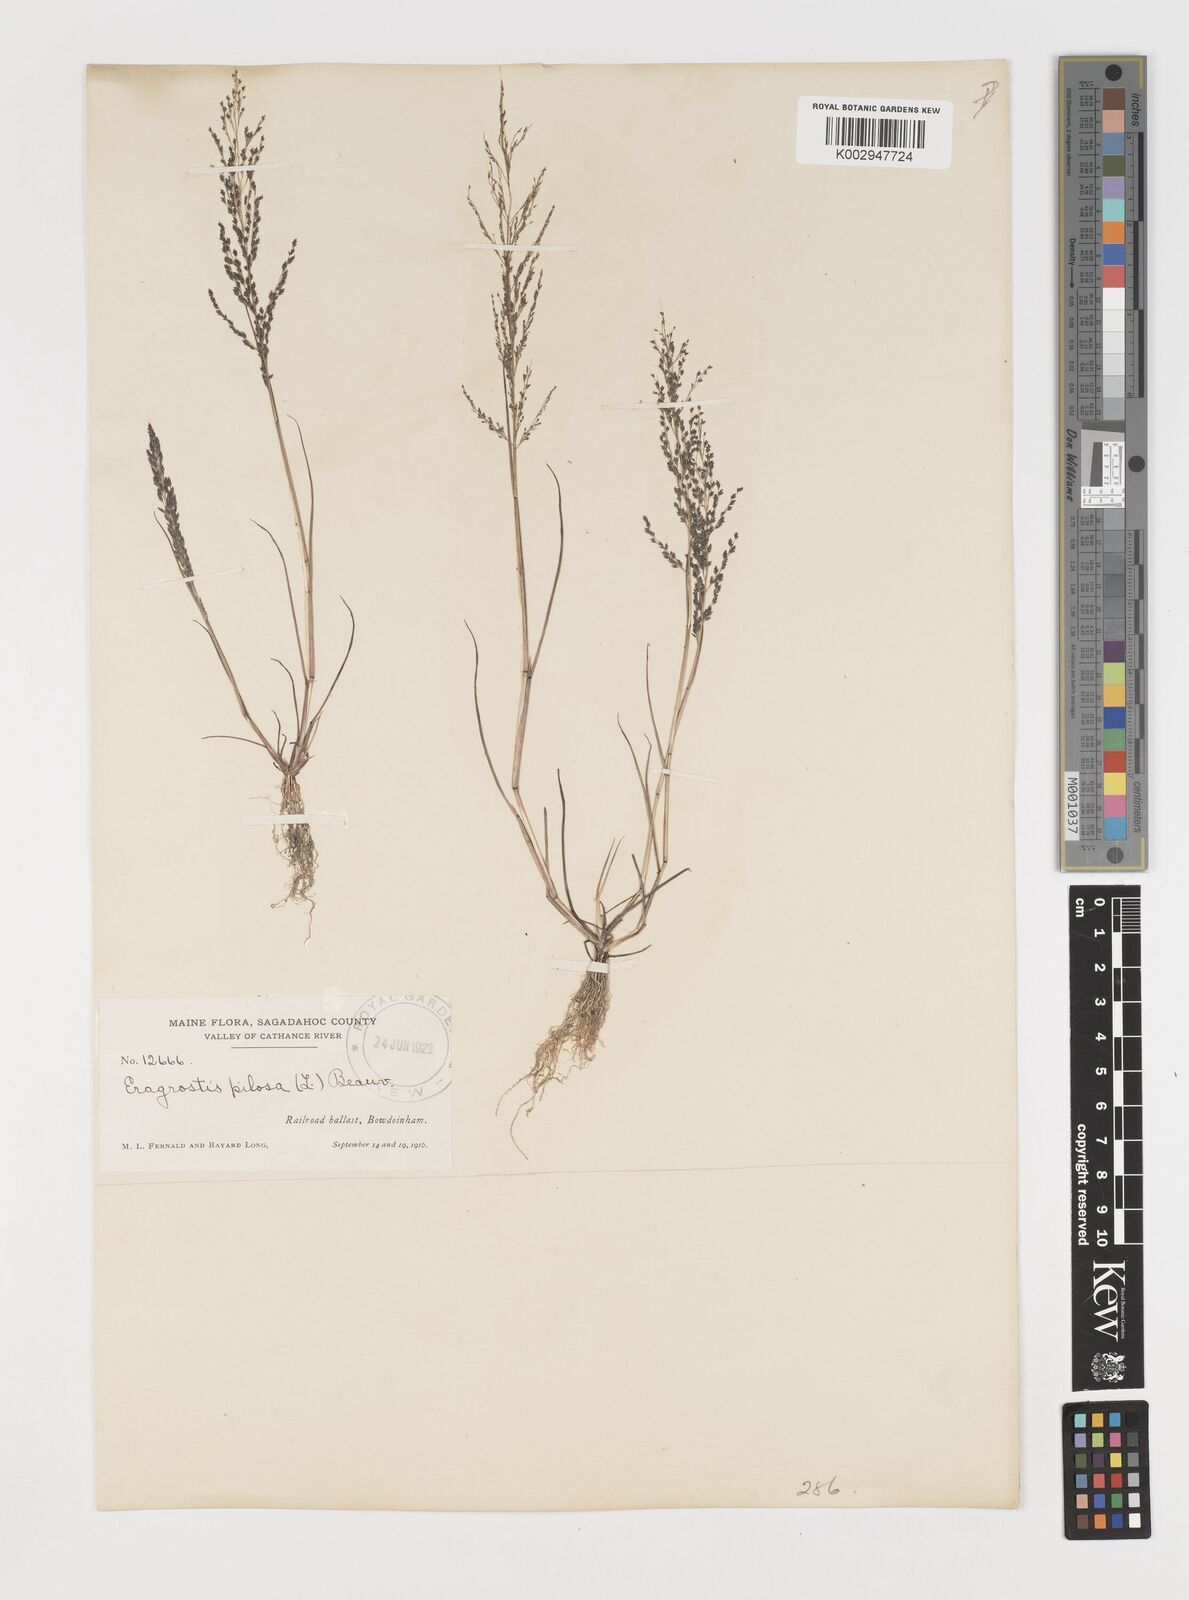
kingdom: Plantae
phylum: Tracheophyta
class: Liliopsida
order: Poales
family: Poaceae
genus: Eragrostis
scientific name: Eragrostis pilosa
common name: Indian lovegrass
